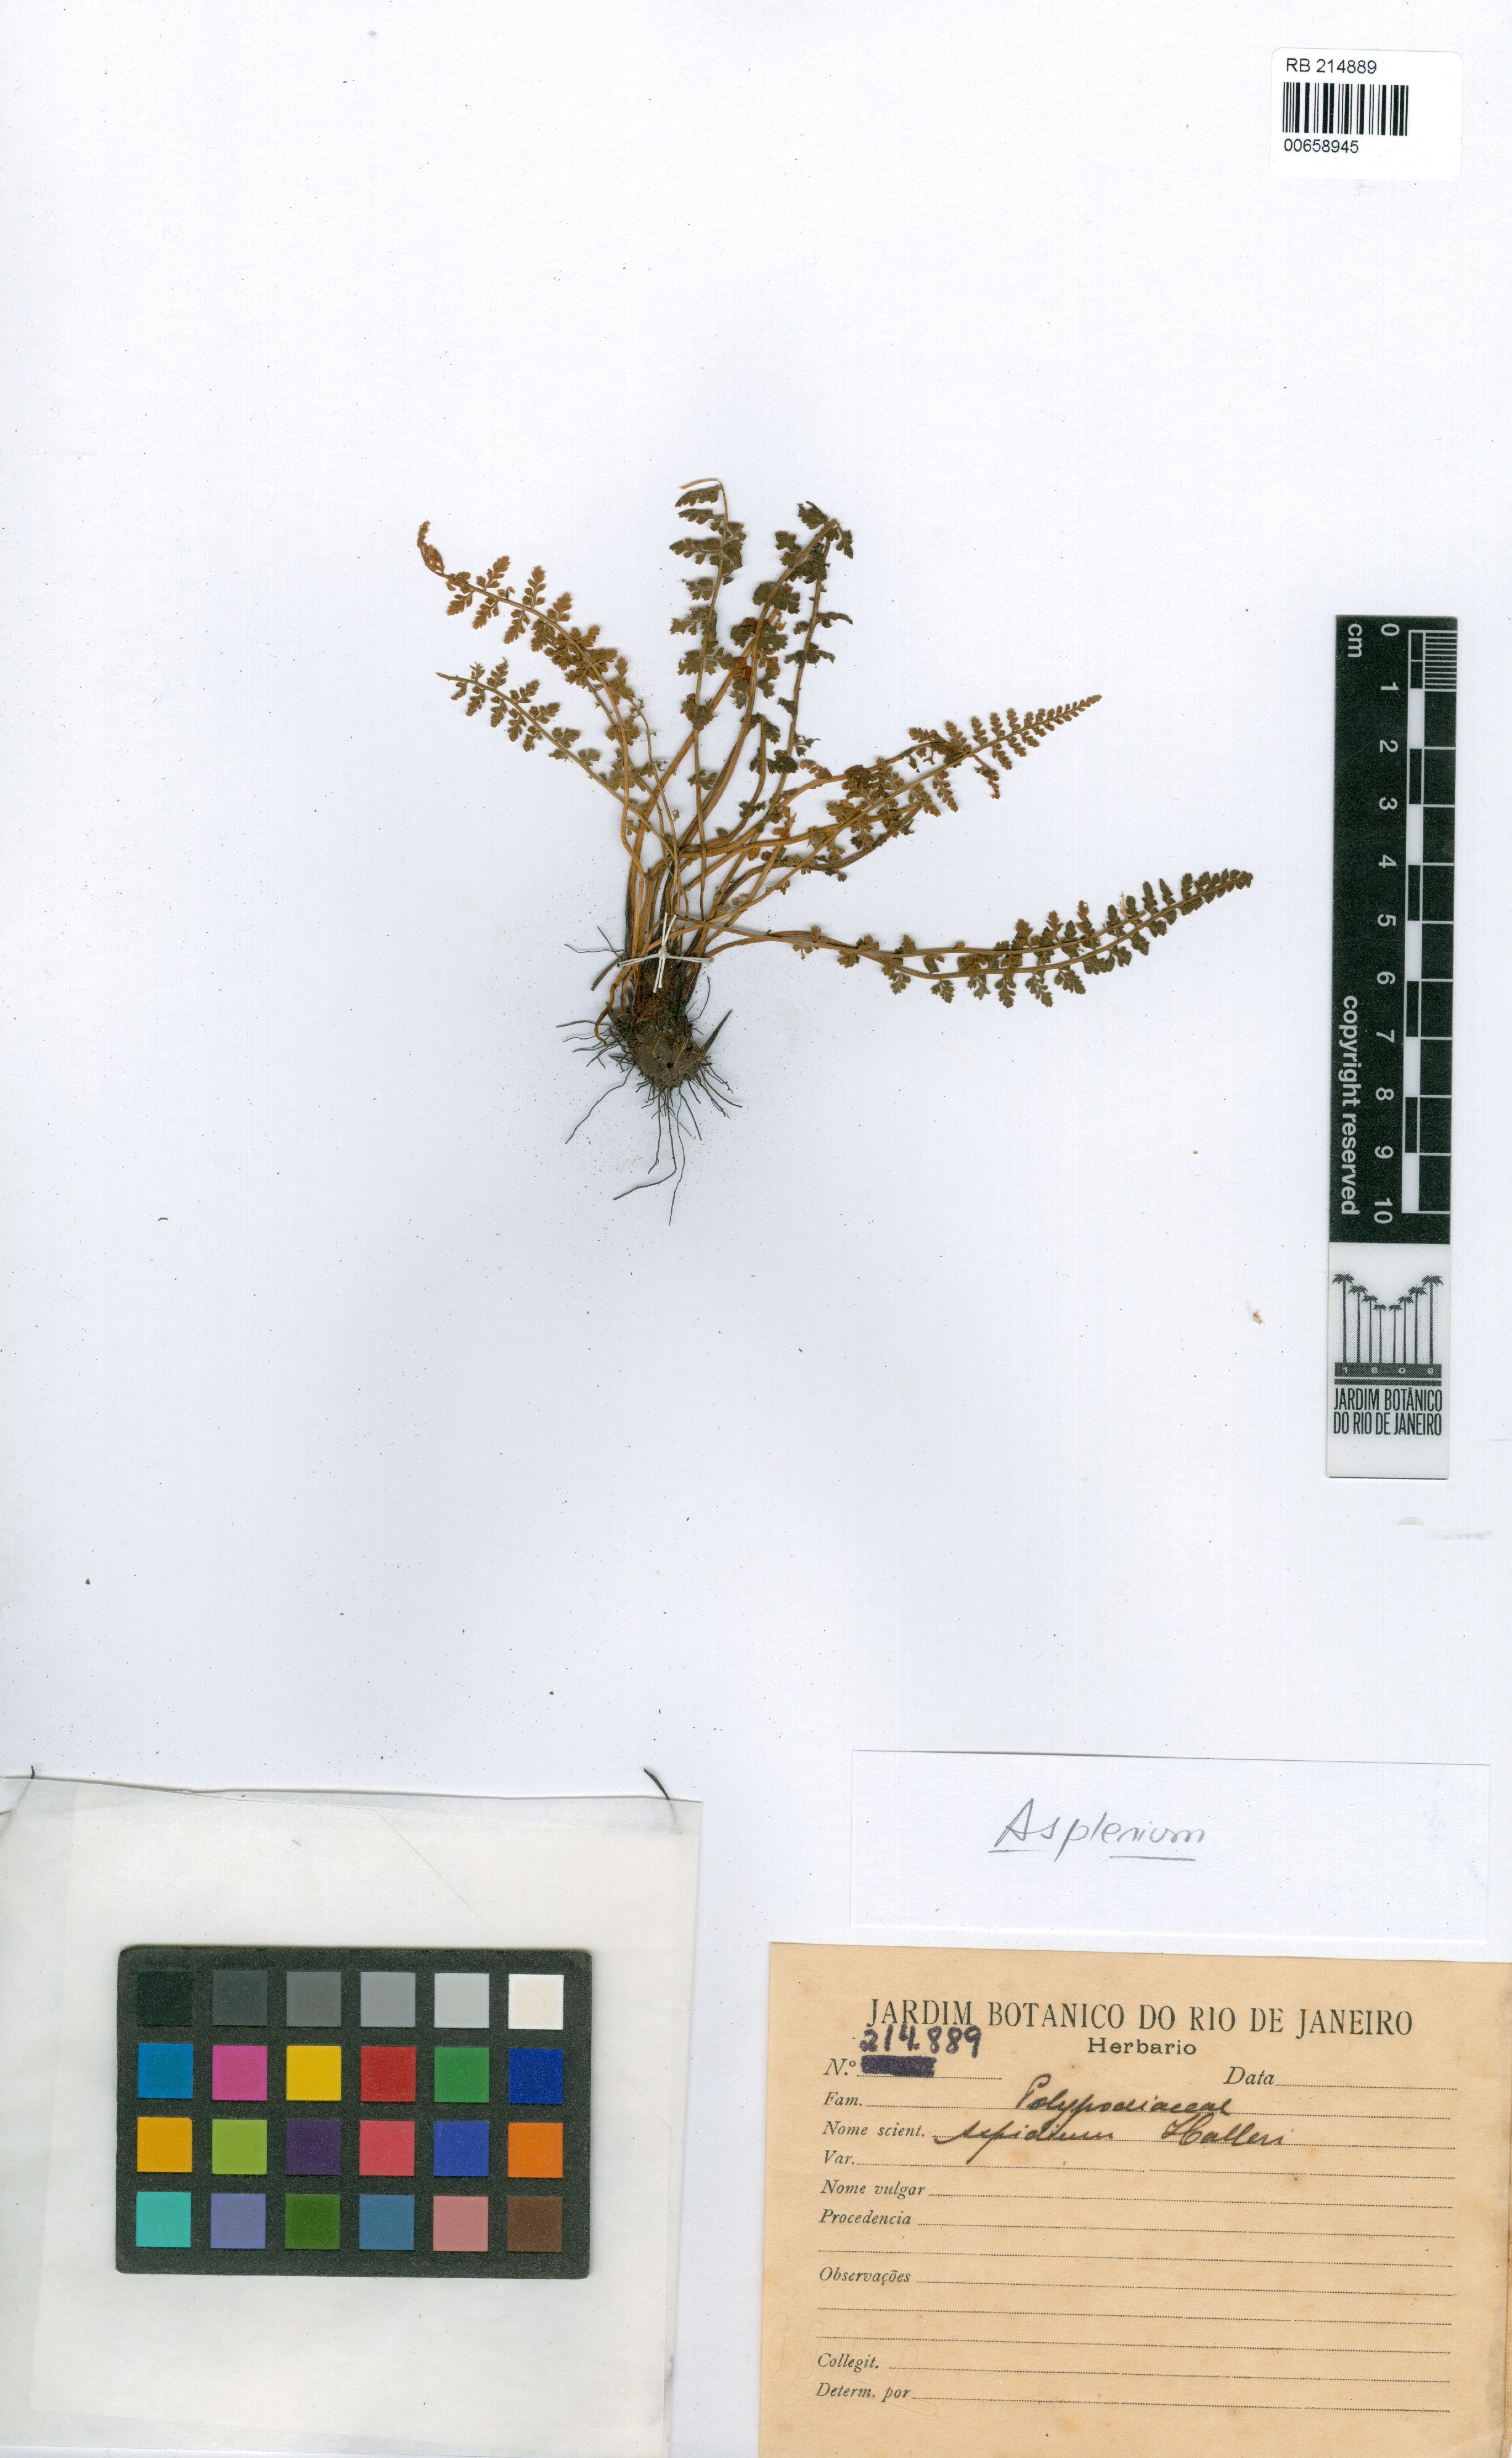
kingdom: Plantae
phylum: Tracheophyta
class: Polypodiopsida
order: Polypodiales
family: Aspleniaceae
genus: Asplenium
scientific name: Asplenium fontanum
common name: Fountain spleenwort
